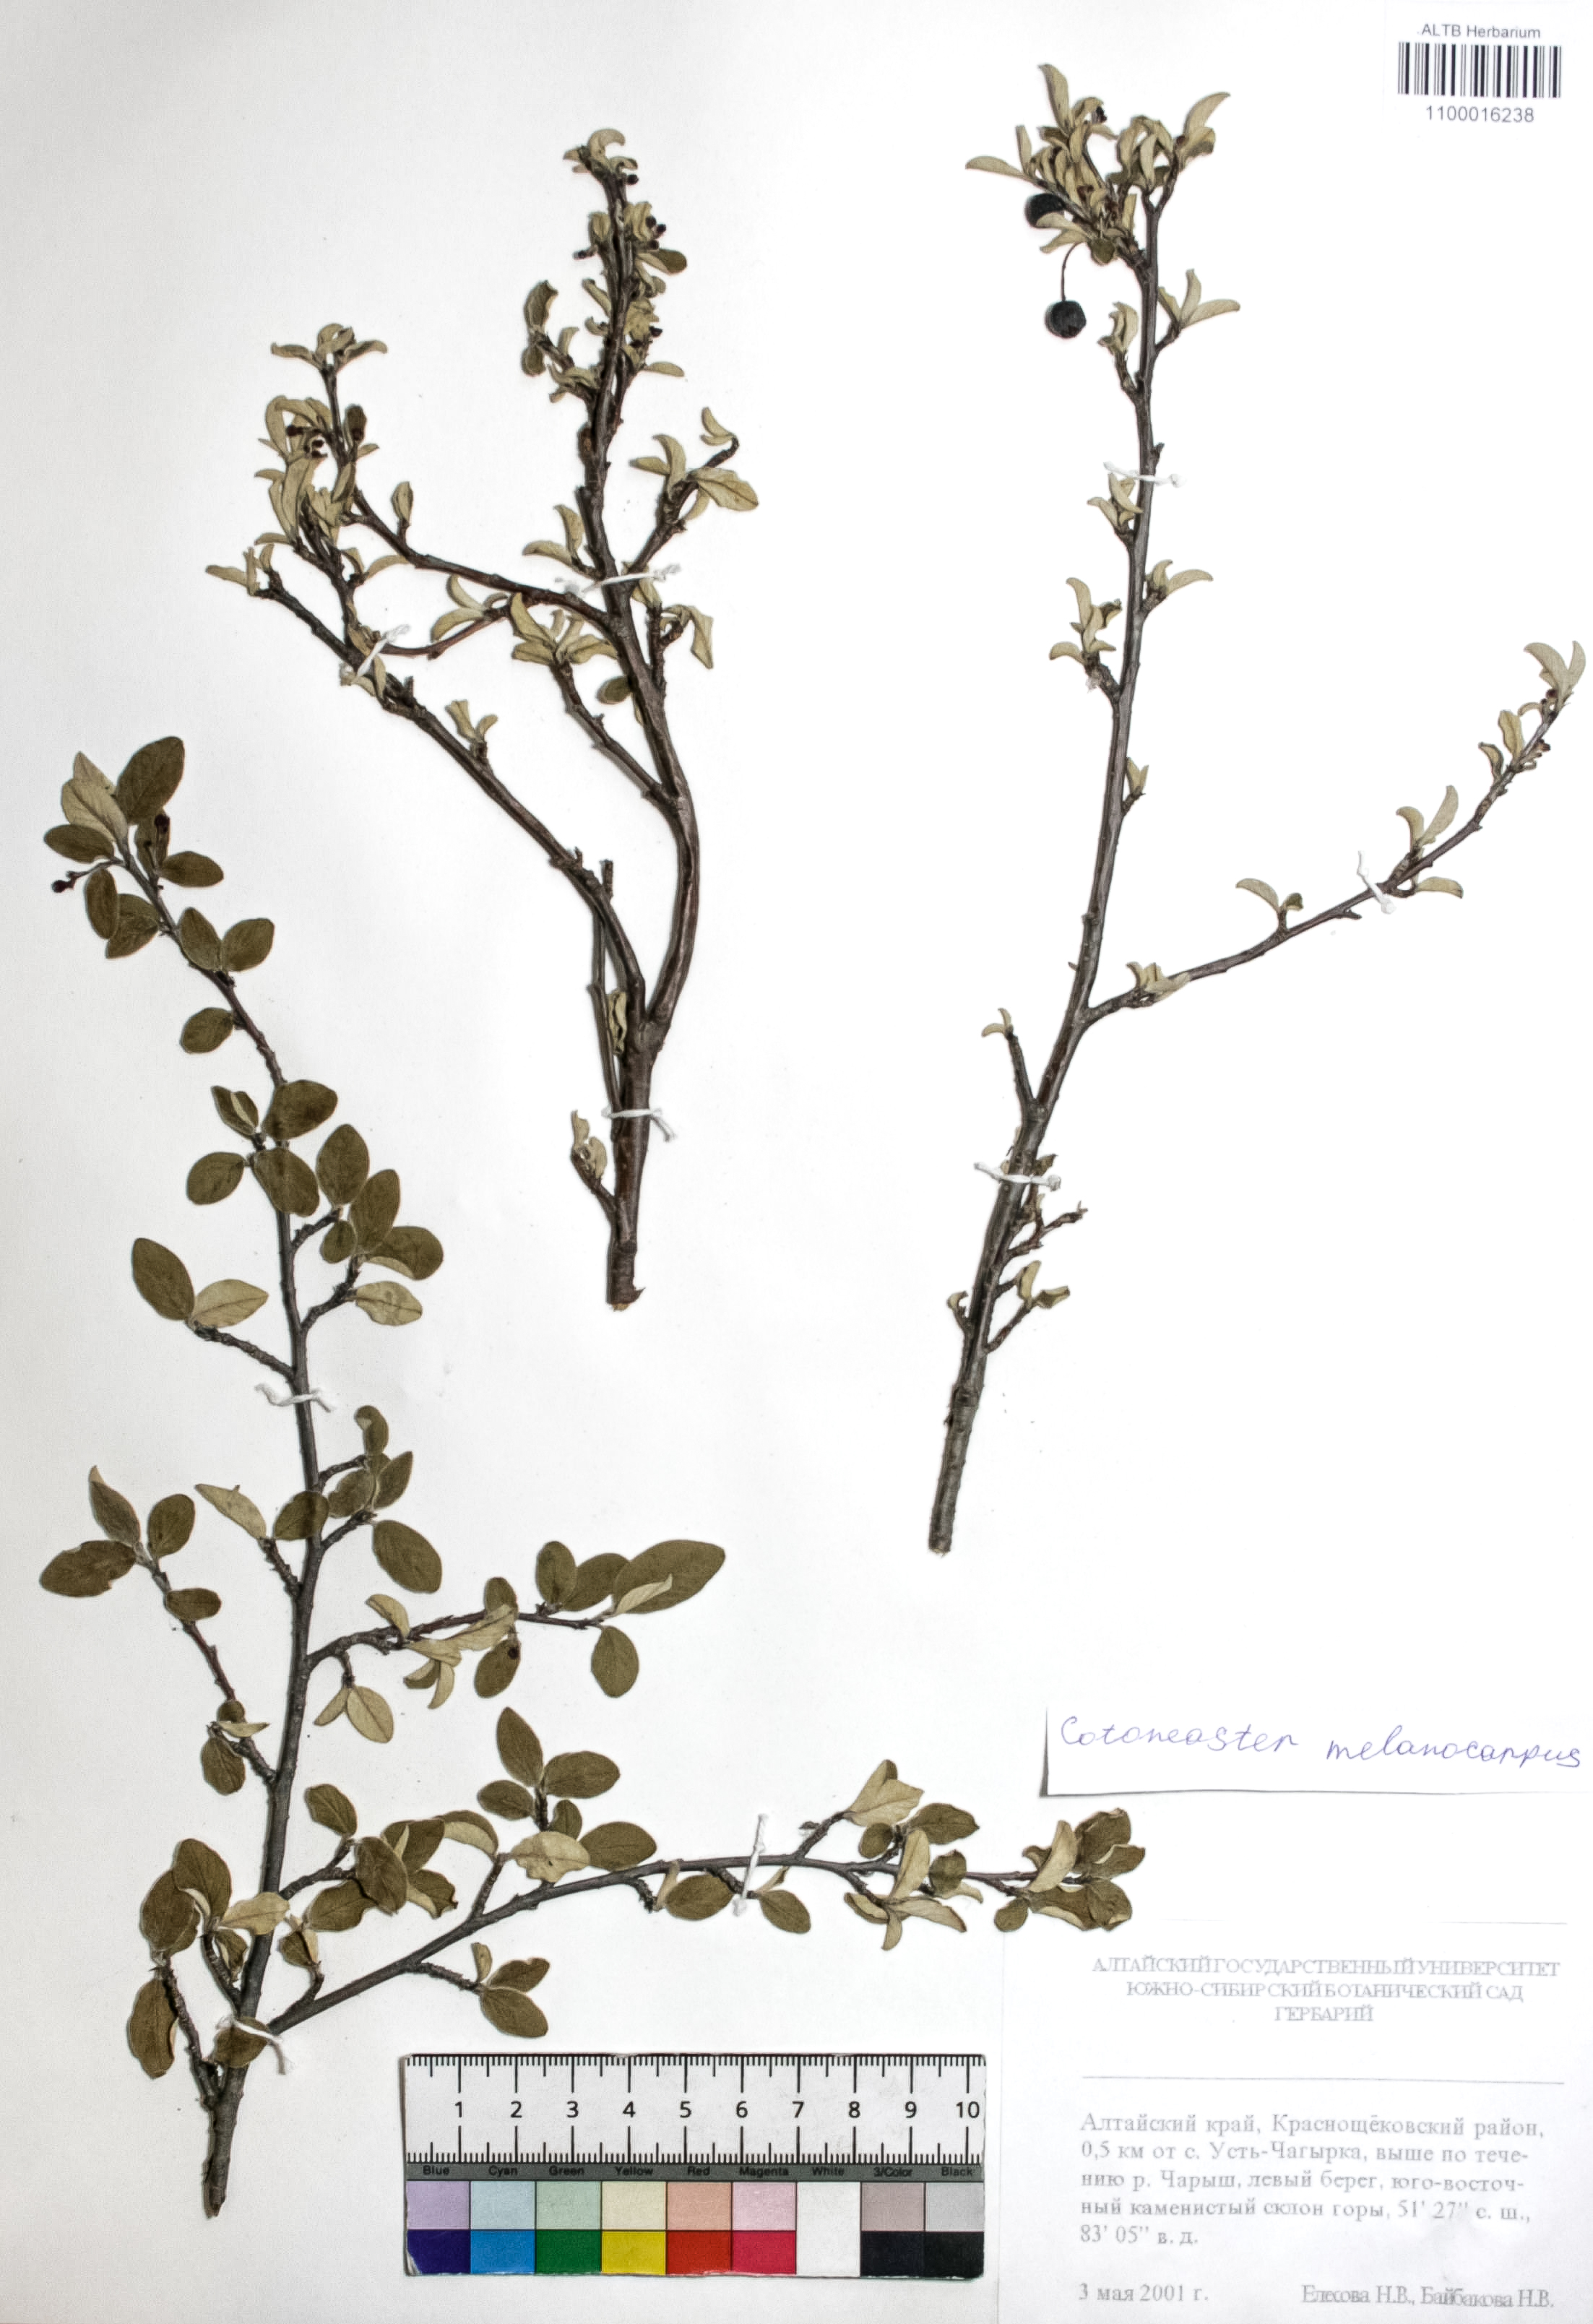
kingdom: Plantae
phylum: Tracheophyta
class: Magnoliopsida
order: Rosales
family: Rosaceae
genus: Cotoneaster
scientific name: Cotoneaster niger
